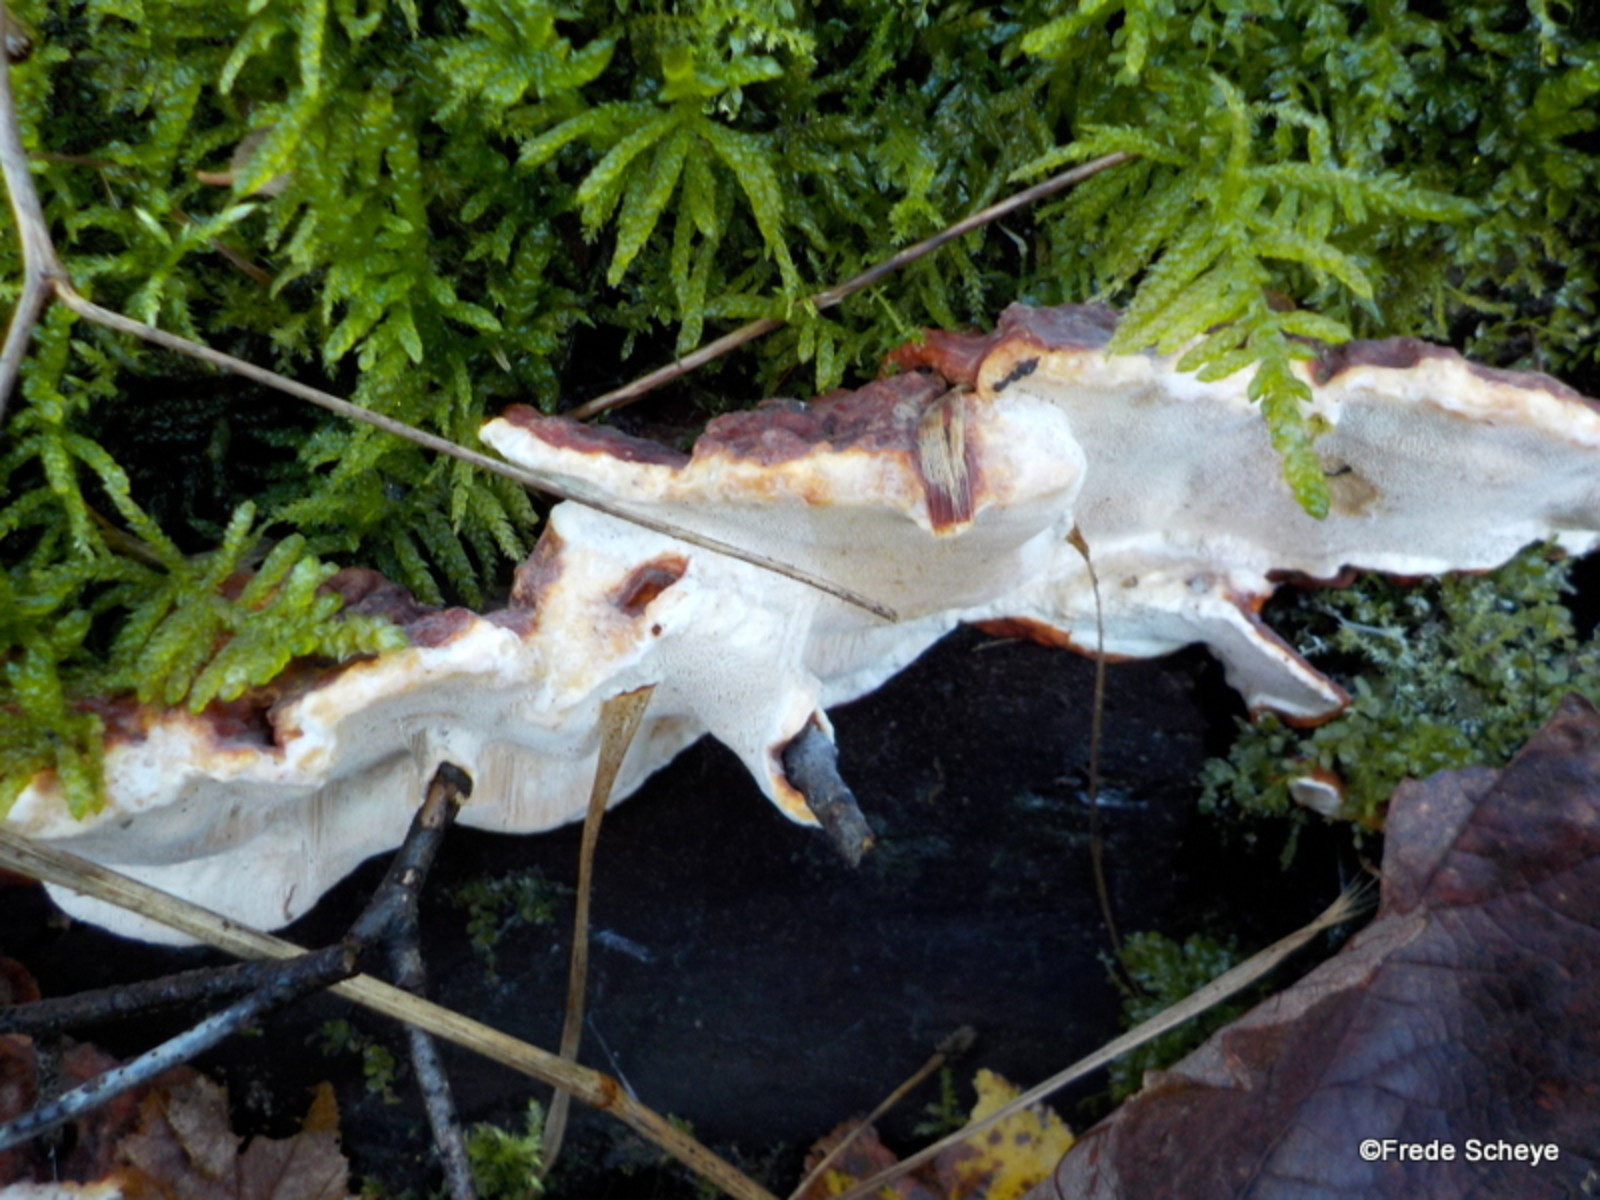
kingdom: Fungi
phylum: Basidiomycota
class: Agaricomycetes
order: Russulales
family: Bondarzewiaceae
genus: Heterobasidion
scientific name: Heterobasidion annosum
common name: almindelig rodfordærver
